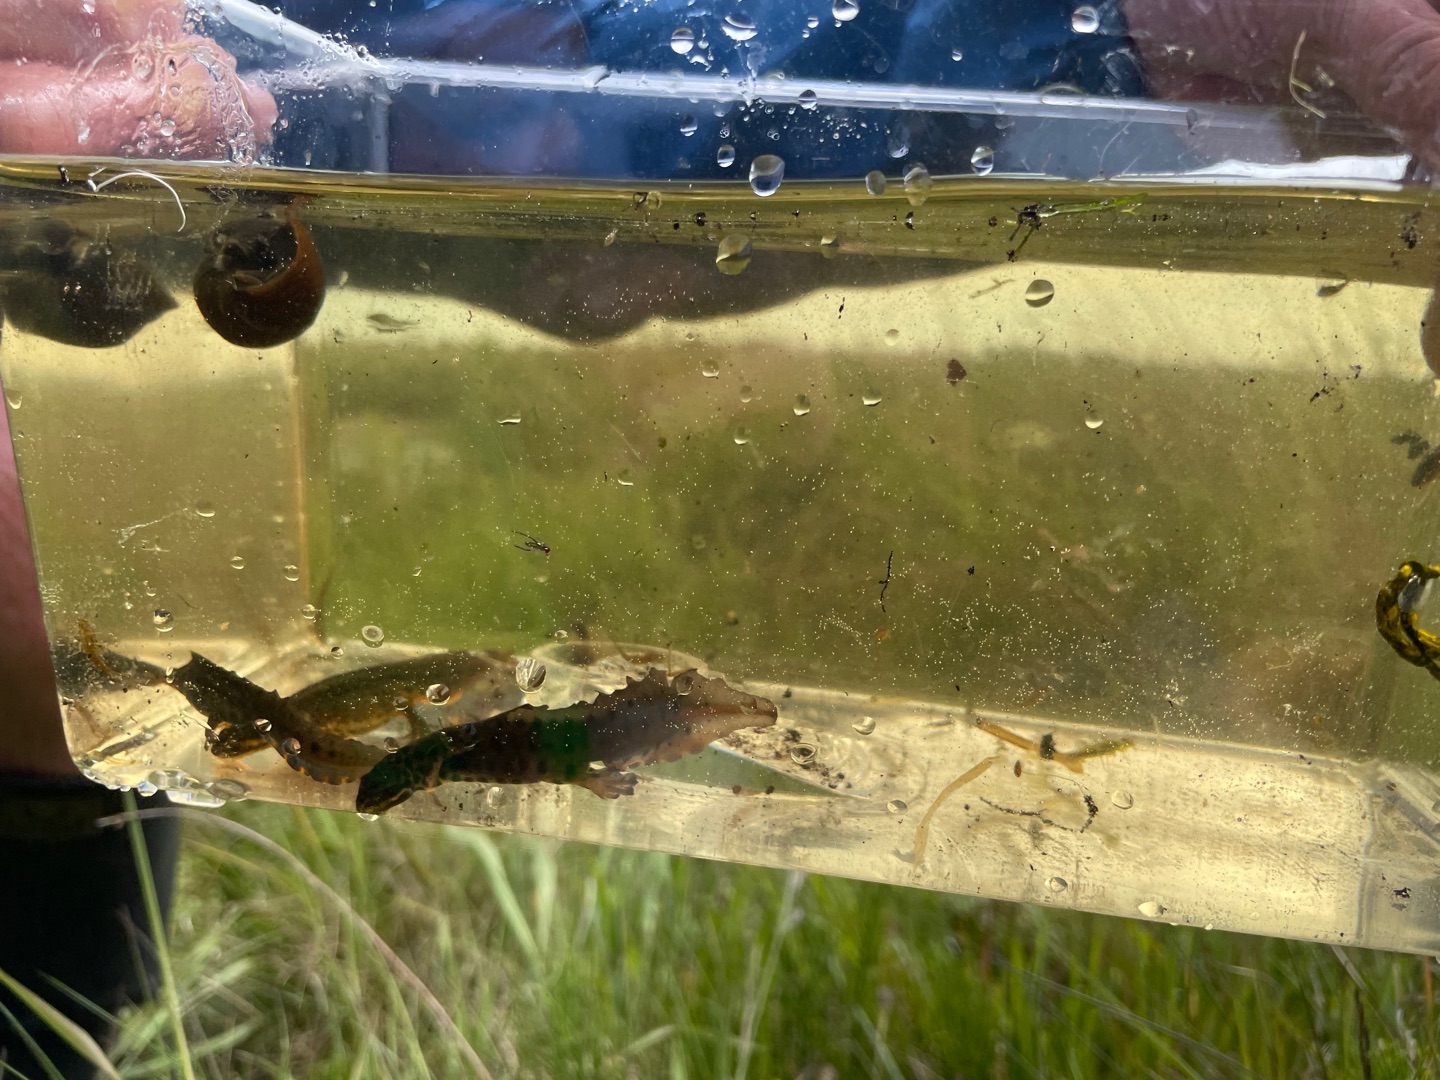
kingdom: Animalia
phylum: Chordata
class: Amphibia
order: Caudata
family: Salamandridae
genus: Lissotriton
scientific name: Lissotriton vulgaris
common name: Lille vandsalamander
